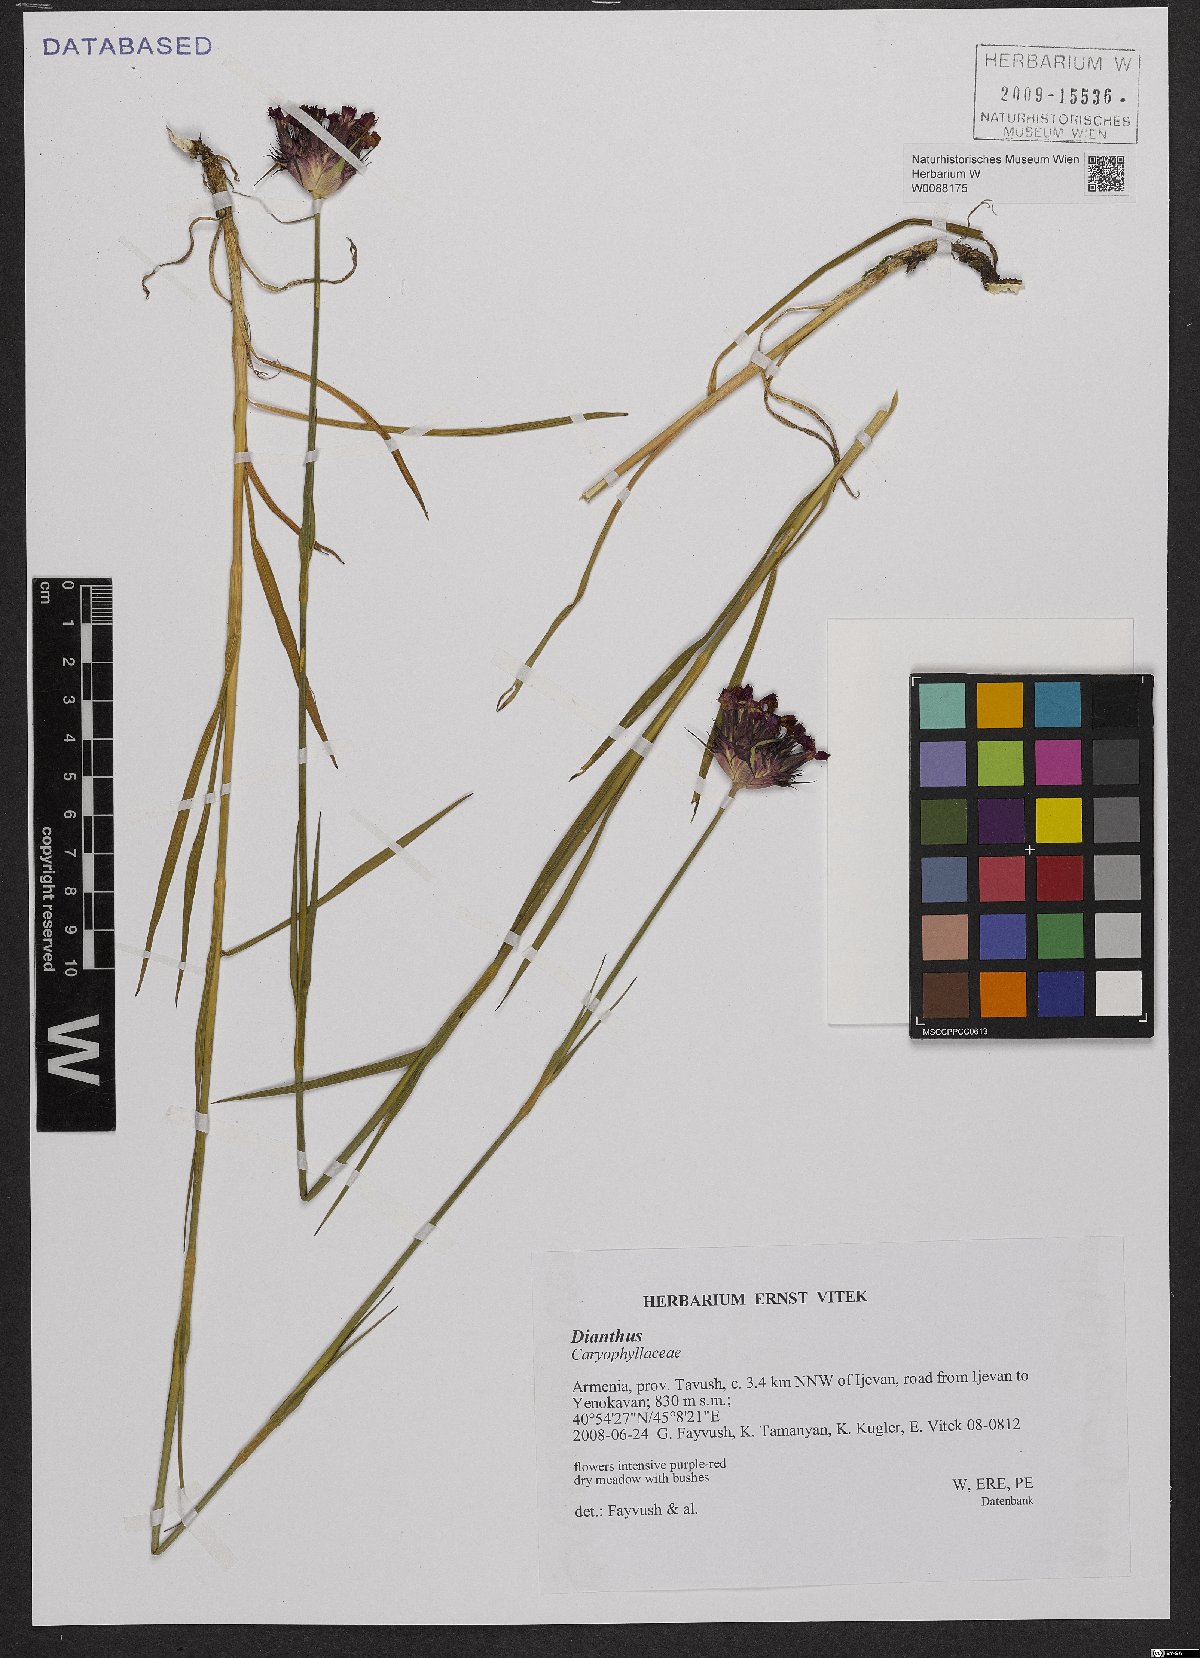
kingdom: Plantae
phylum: Tracheophyta
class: Magnoliopsida
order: Caryophyllales
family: Caryophyllaceae
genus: Dianthus
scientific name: Dianthus
